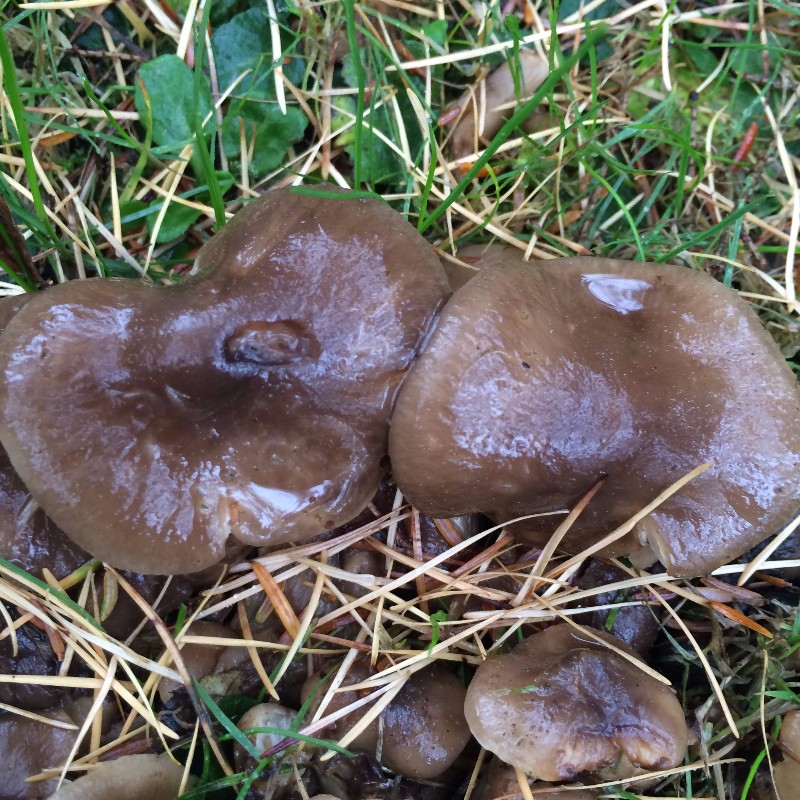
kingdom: Fungi
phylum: Basidiomycota
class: Agaricomycetes
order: Agaricales
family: Lyophyllaceae
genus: Lyophyllum
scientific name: Lyophyllum decastes
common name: røggrå gråblad
